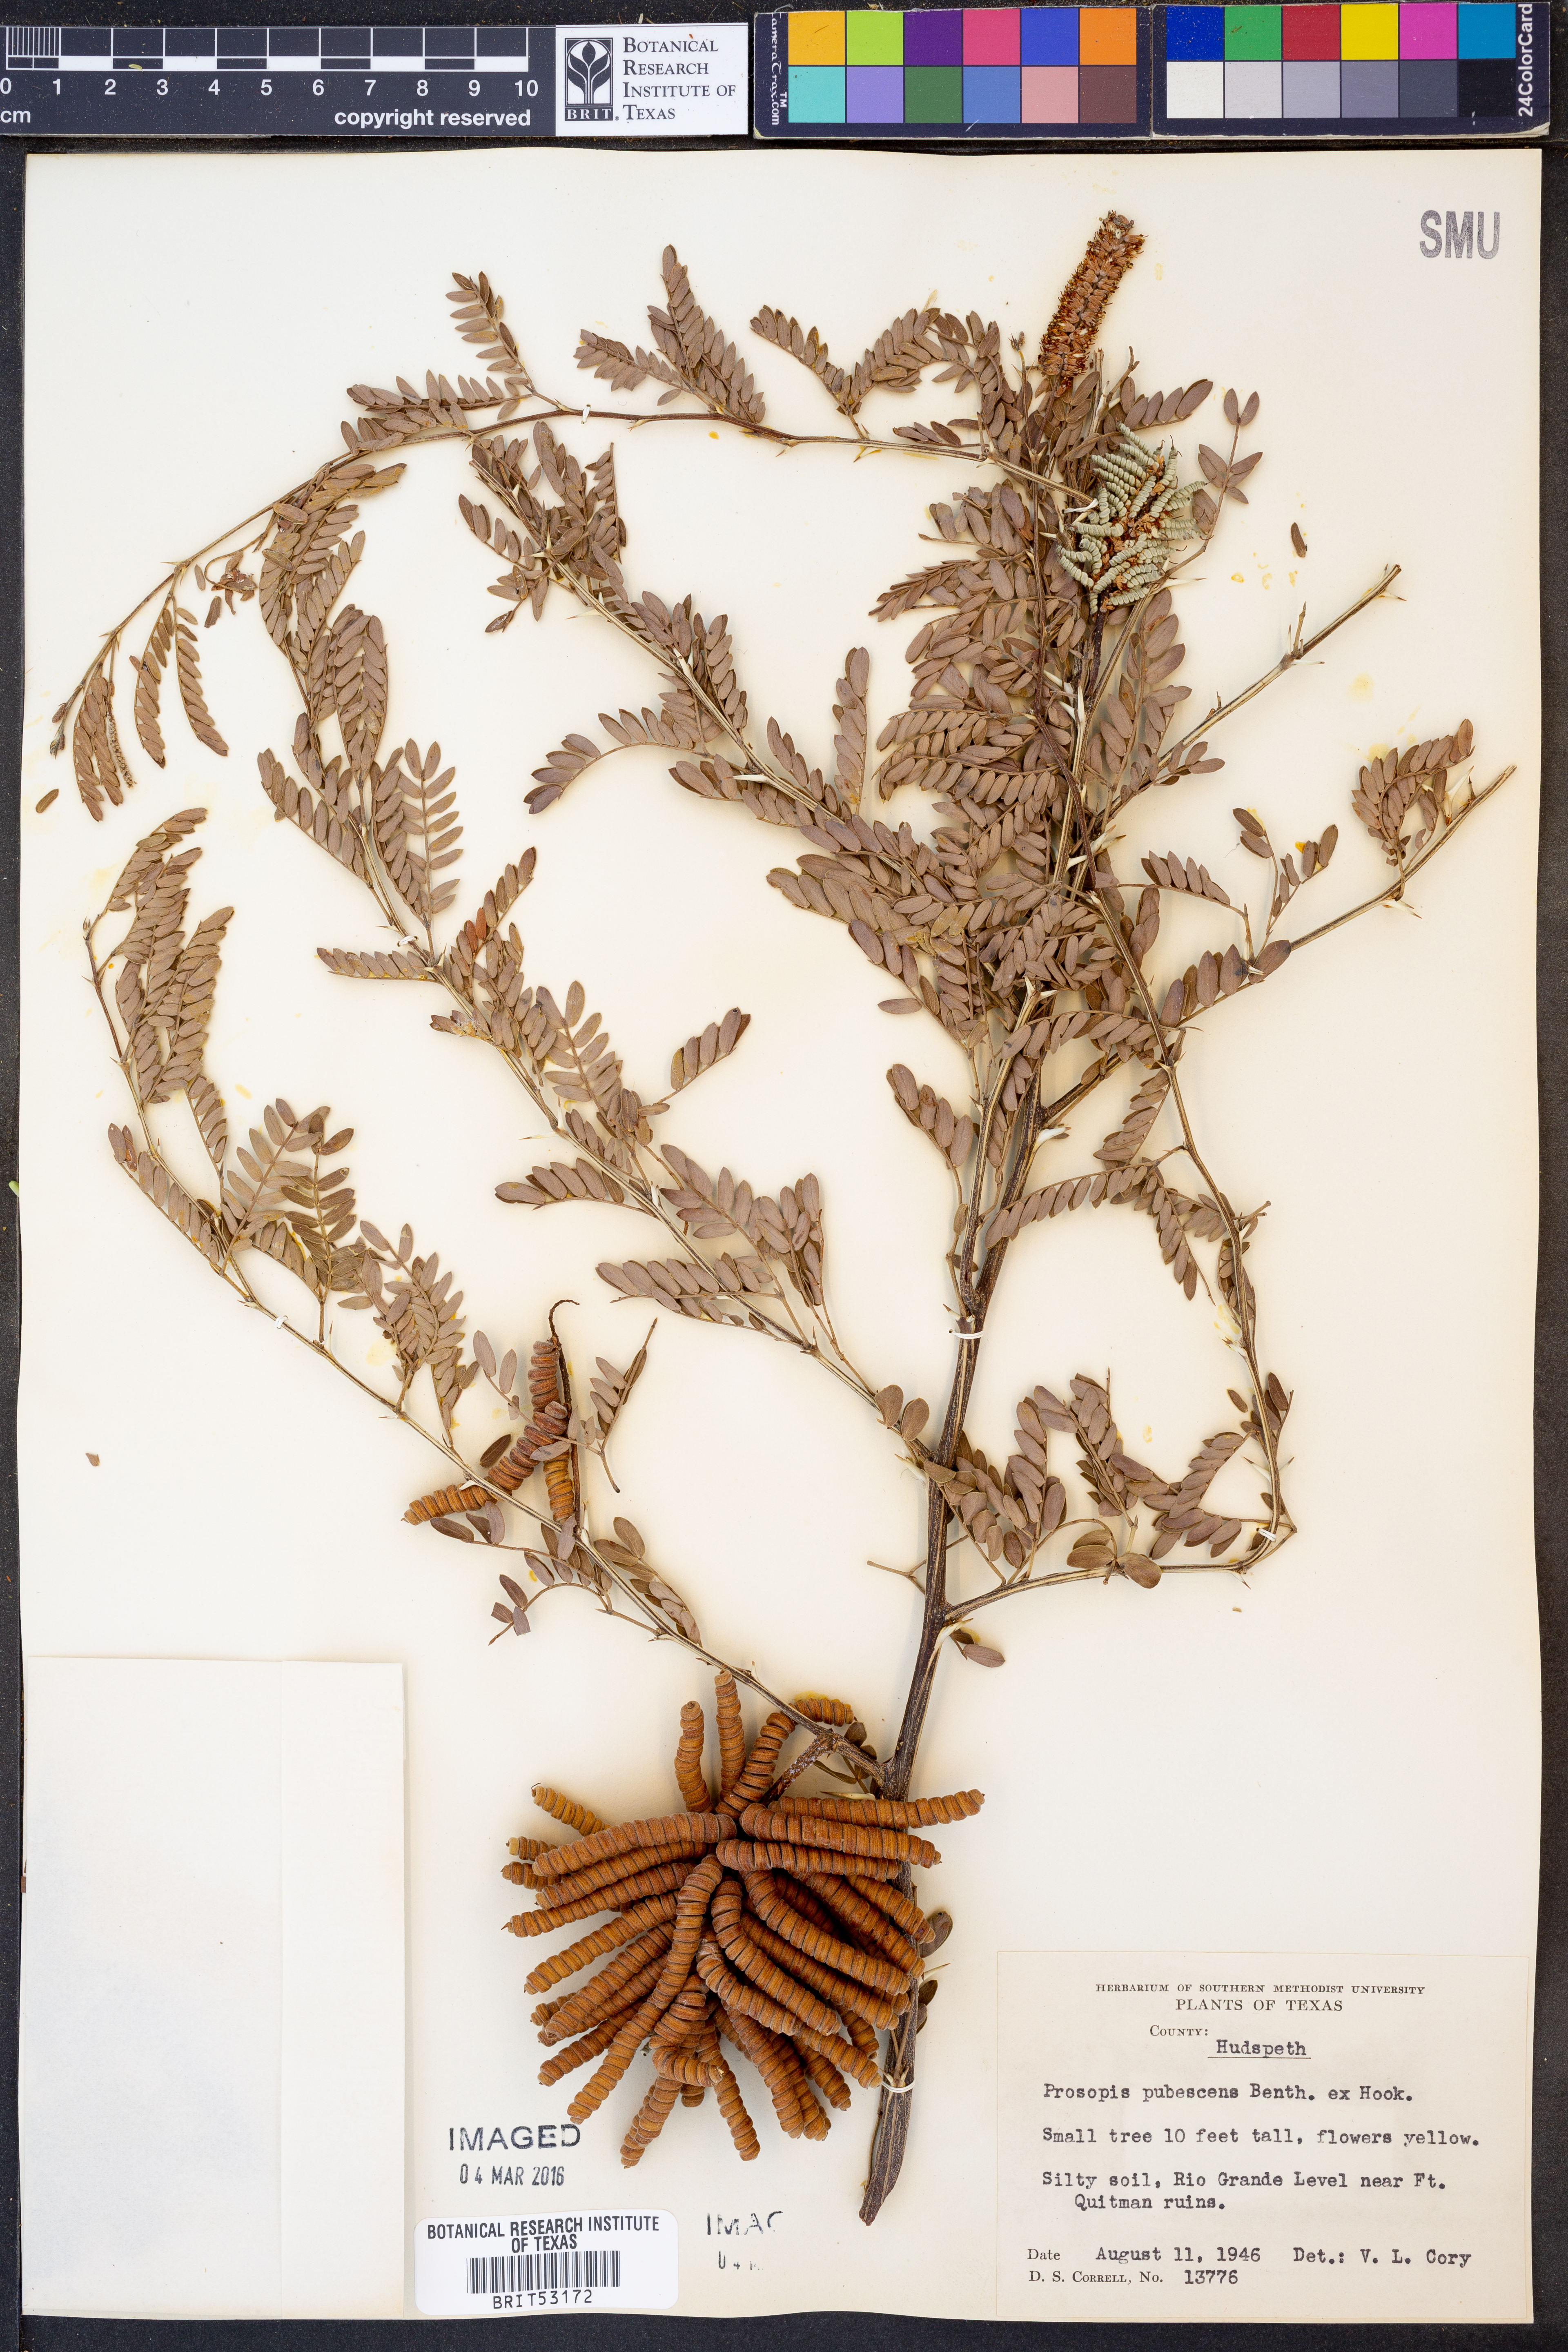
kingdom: Plantae
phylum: Tracheophyta
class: Magnoliopsida
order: Fabales
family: Fabaceae
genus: Prosopis
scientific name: Prosopis pubescens
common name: Screw-bean
